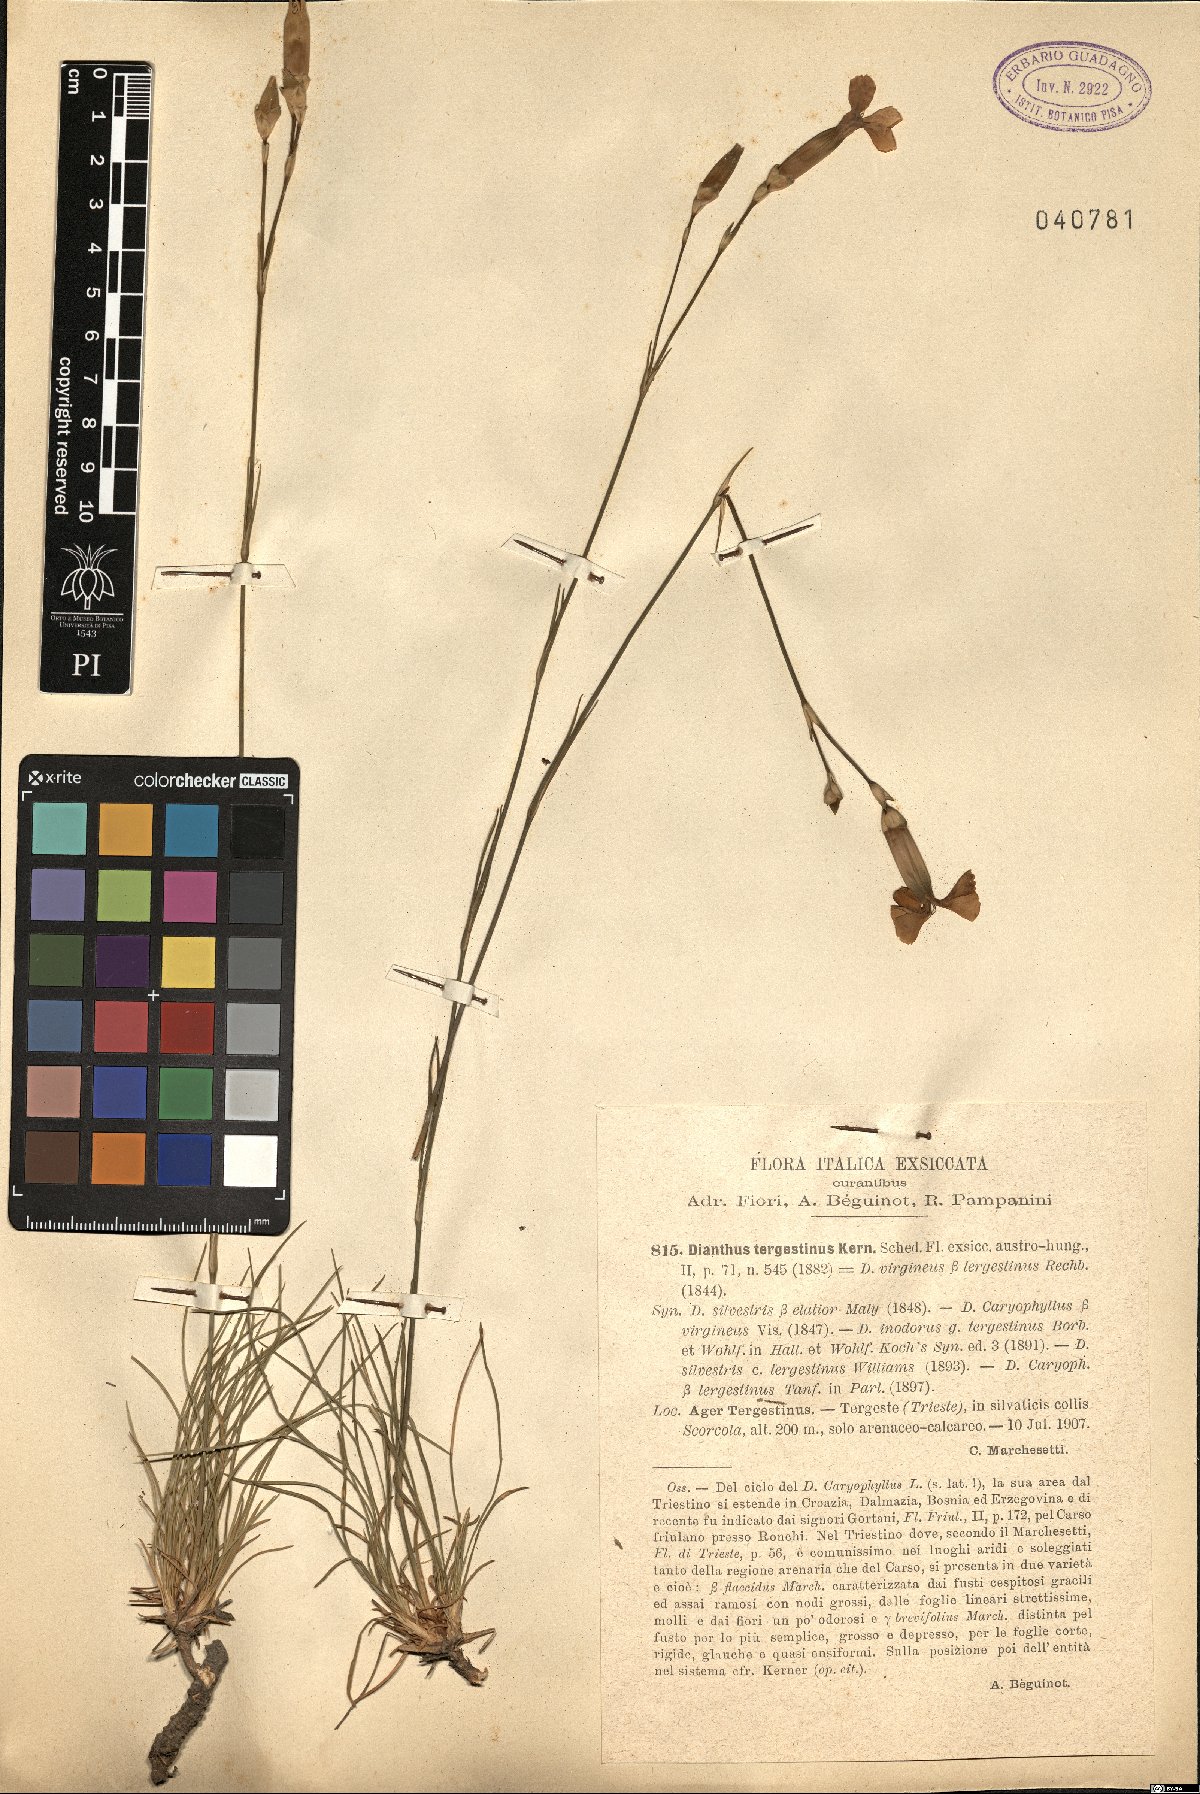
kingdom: Plantae
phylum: Tracheophyta
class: Magnoliopsida
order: Caryophyllales
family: Caryophyllaceae
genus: Dianthus
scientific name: Dianthus sylvestris
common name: Wood pink
